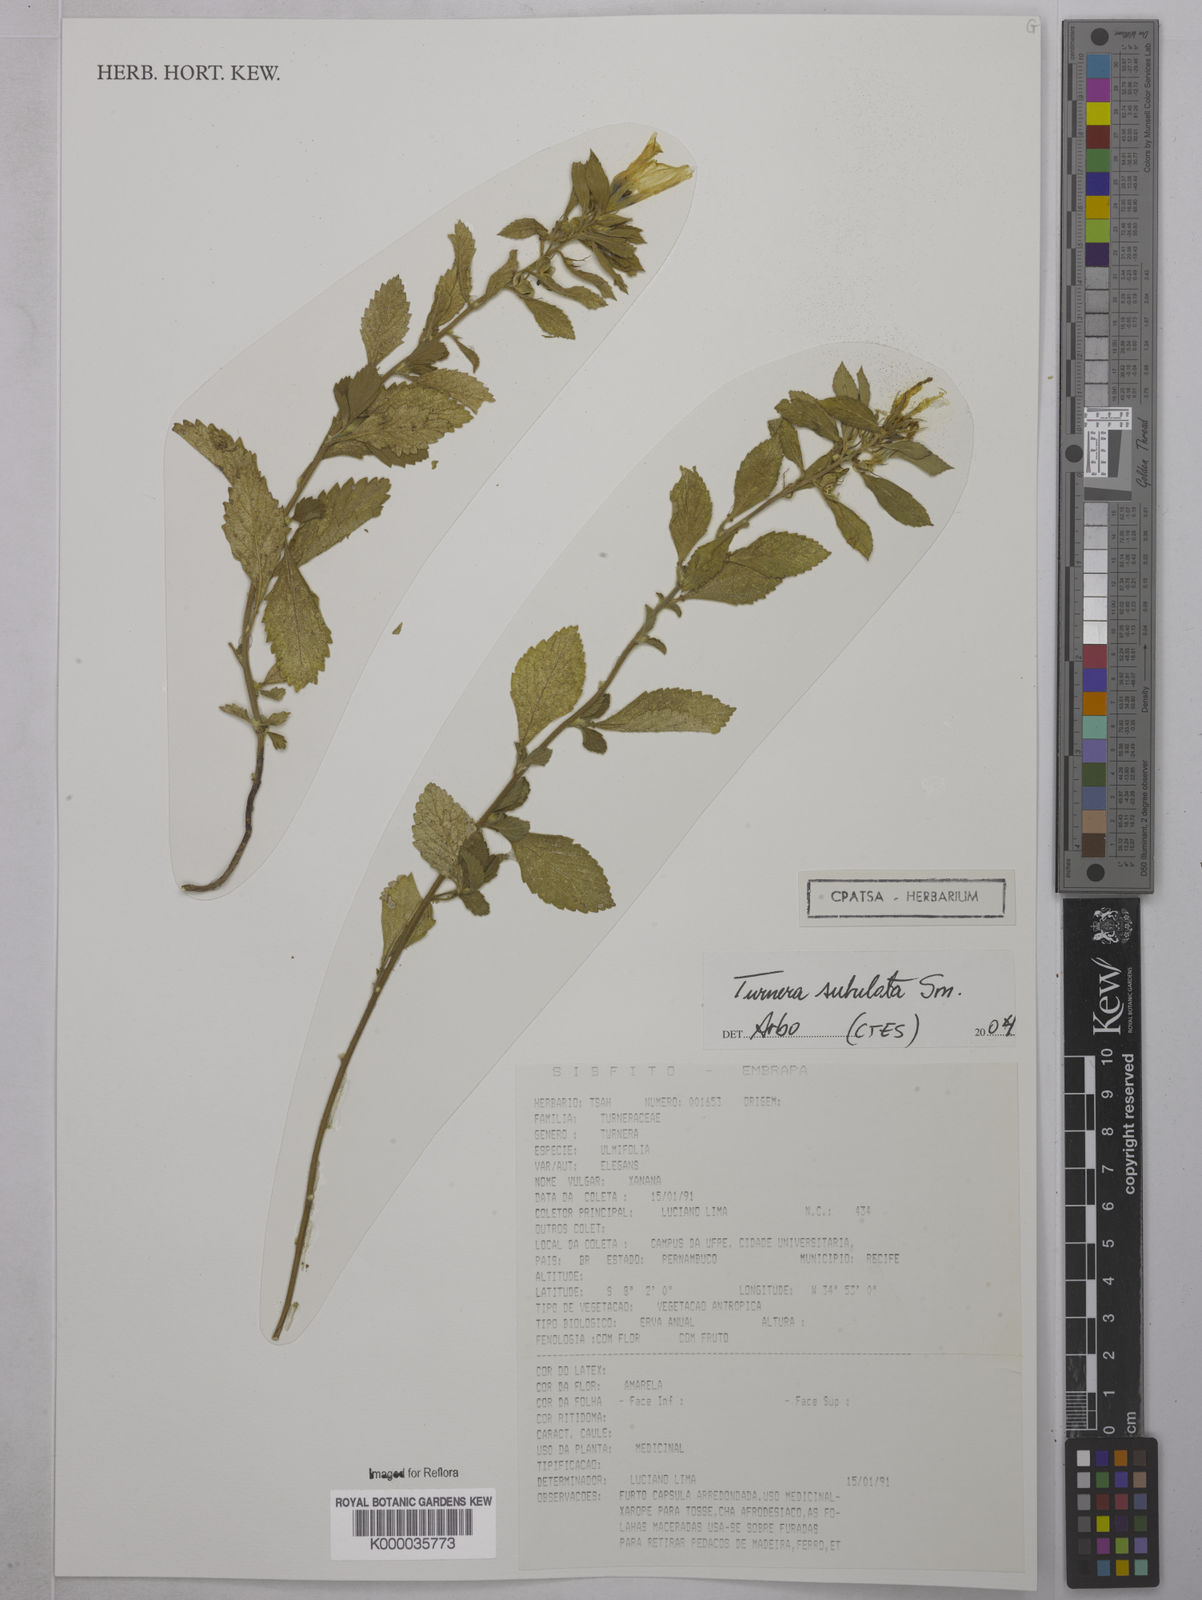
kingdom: Plantae
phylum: Tracheophyta
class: Magnoliopsida
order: Malpighiales
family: Turneraceae
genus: Turnera
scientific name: Turnera subulata
